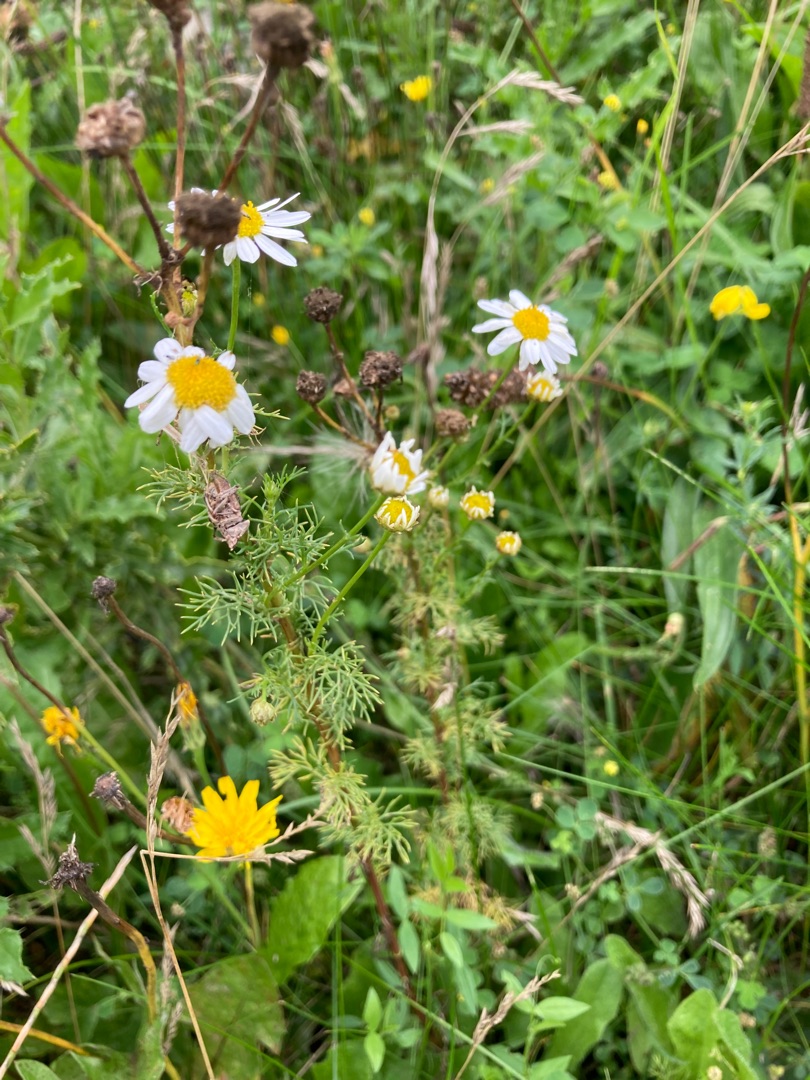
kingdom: Plantae
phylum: Tracheophyta
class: Magnoliopsida
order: Asterales
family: Asteraceae
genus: Tripleurospermum
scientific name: Tripleurospermum
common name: Kamille (Tripleurospermum-slægten)
